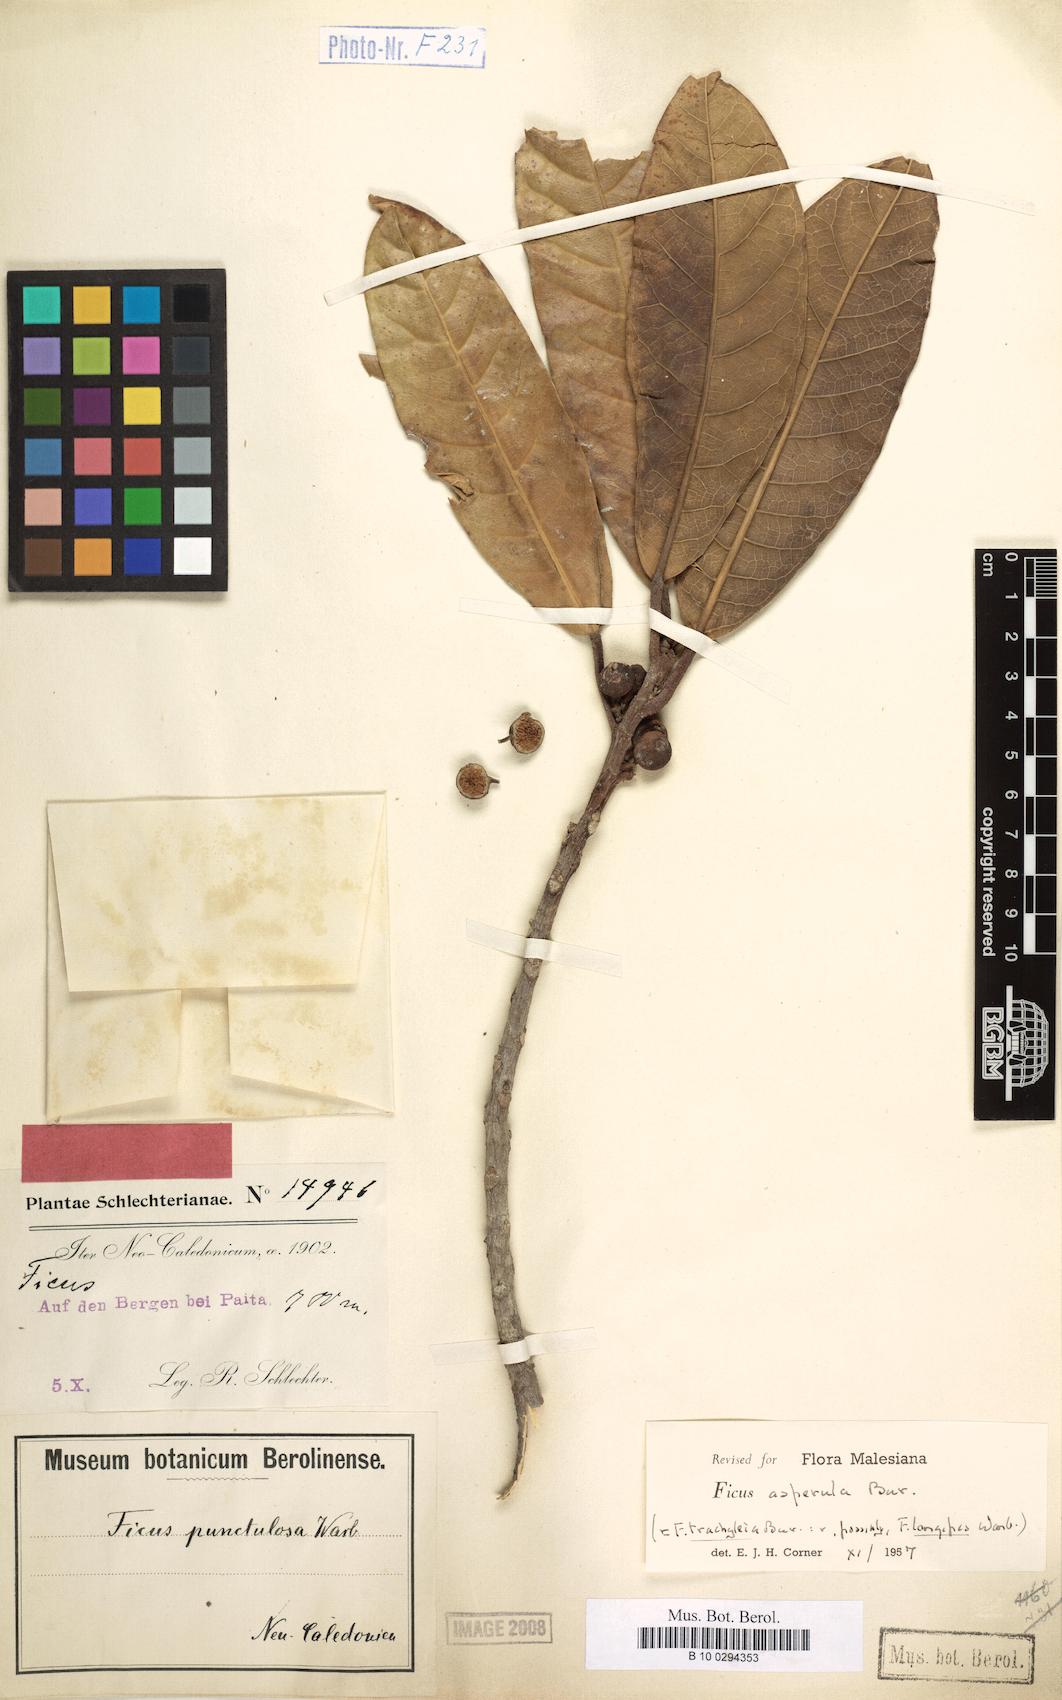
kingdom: Plantae
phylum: Tracheophyta
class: Magnoliopsida
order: Rosales
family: Moraceae
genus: Ficus
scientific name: Ficus asperula
